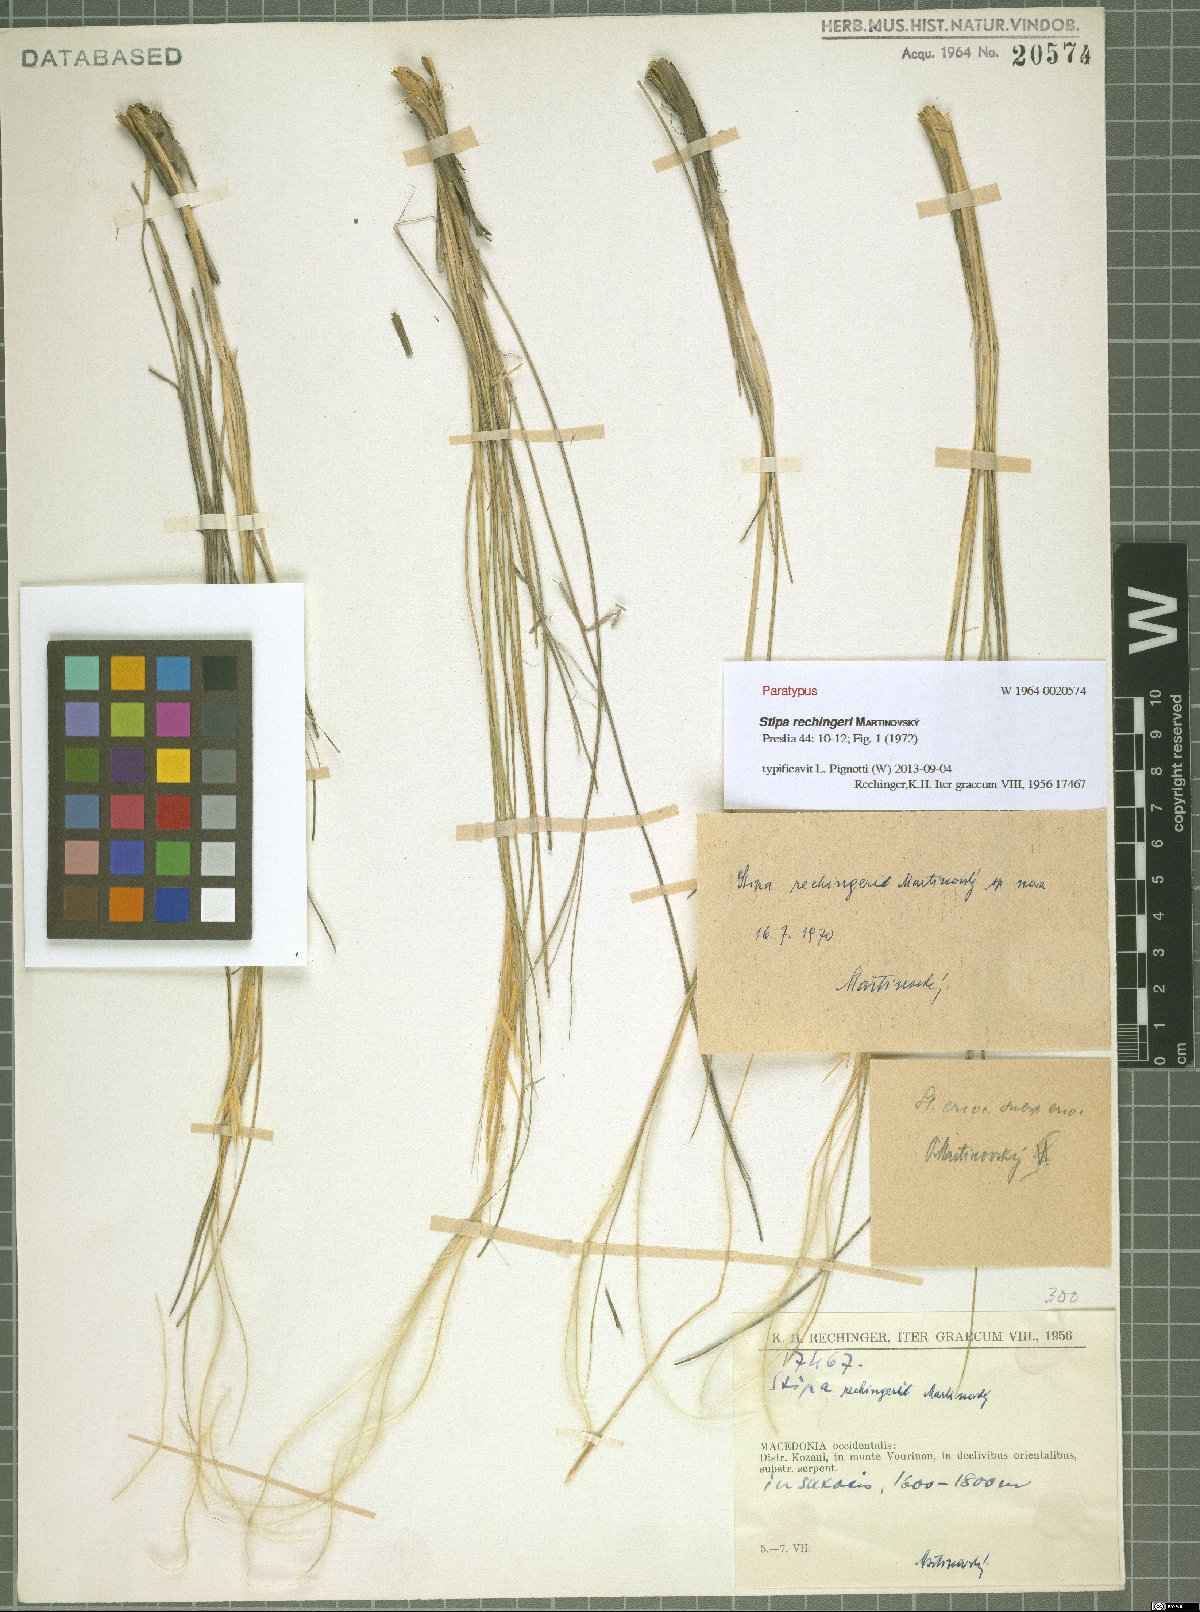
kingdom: Plantae
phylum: Tracheophyta
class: Liliopsida
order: Poales
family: Poaceae
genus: Stipa
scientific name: Stipa rechingeri
